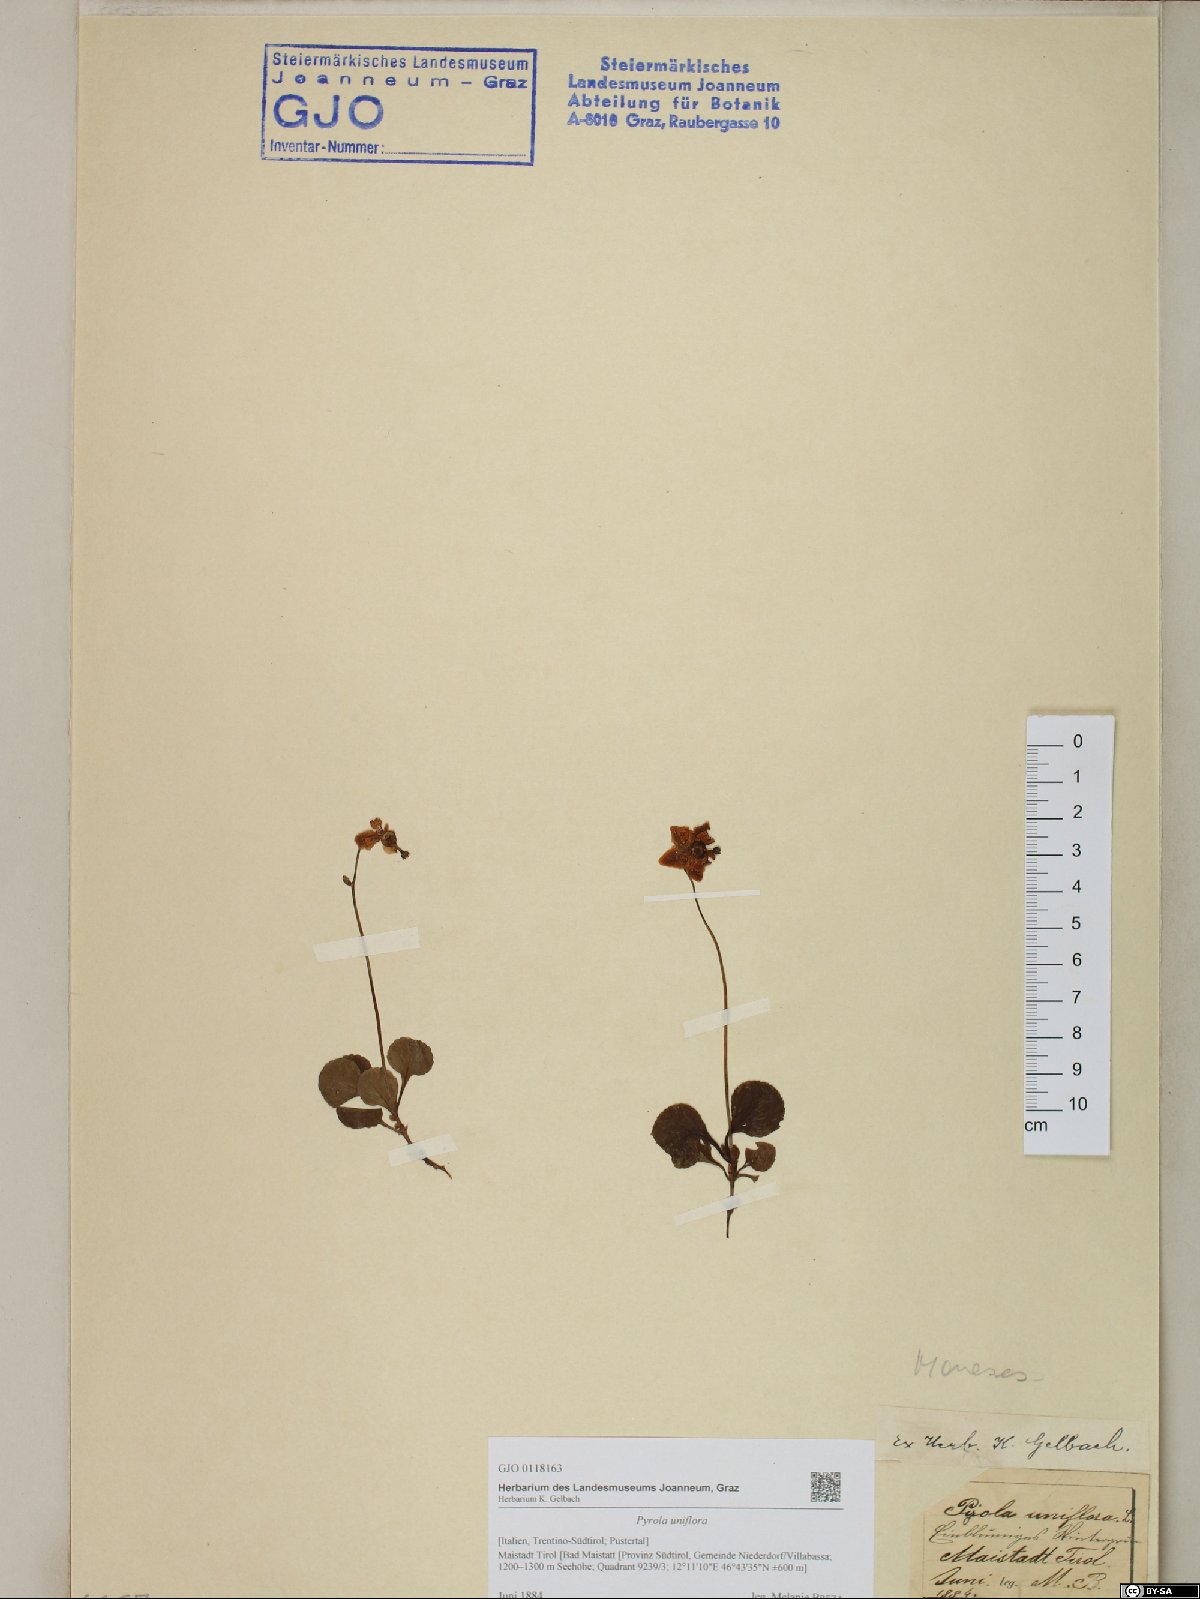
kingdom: Plantae
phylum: Tracheophyta
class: Magnoliopsida
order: Ericales
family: Ericaceae
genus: Moneses
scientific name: Moneses uniflora
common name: One-flowered wintergreen
